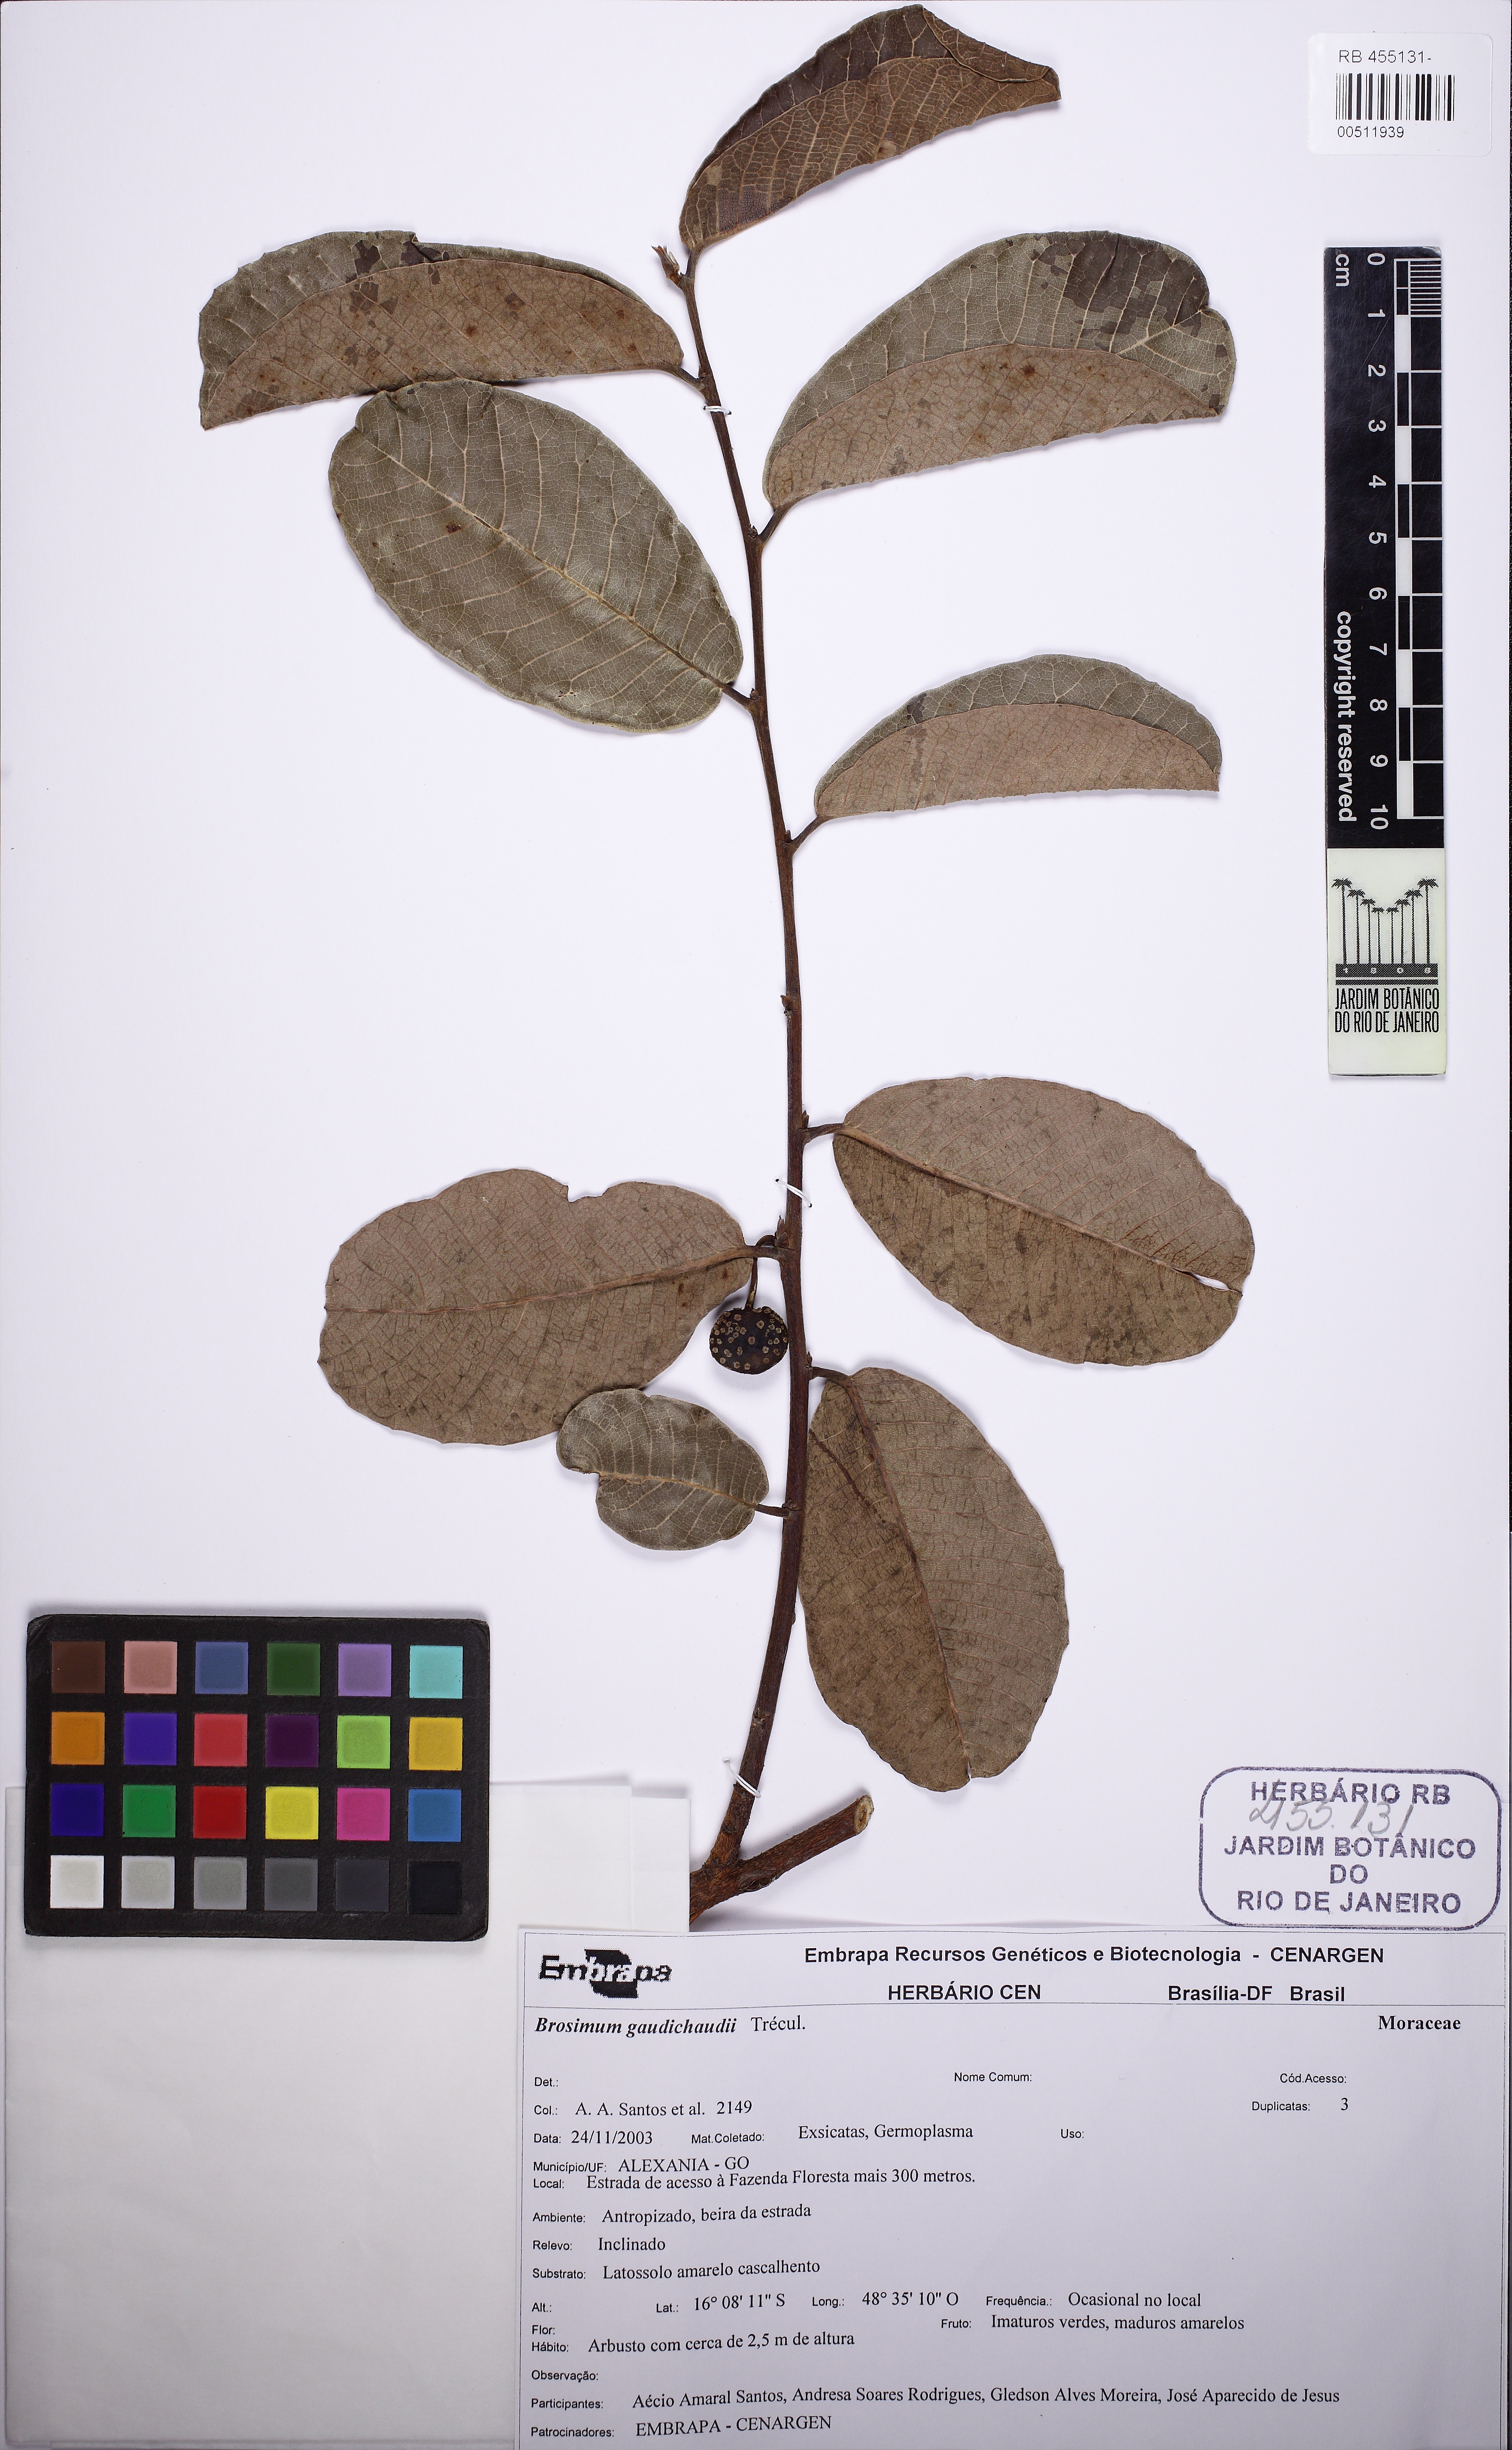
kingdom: Plantae
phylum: Tracheophyta
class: Magnoliopsida
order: Rosales
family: Moraceae
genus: Brosimum
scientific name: Brosimum gaudichaudii
